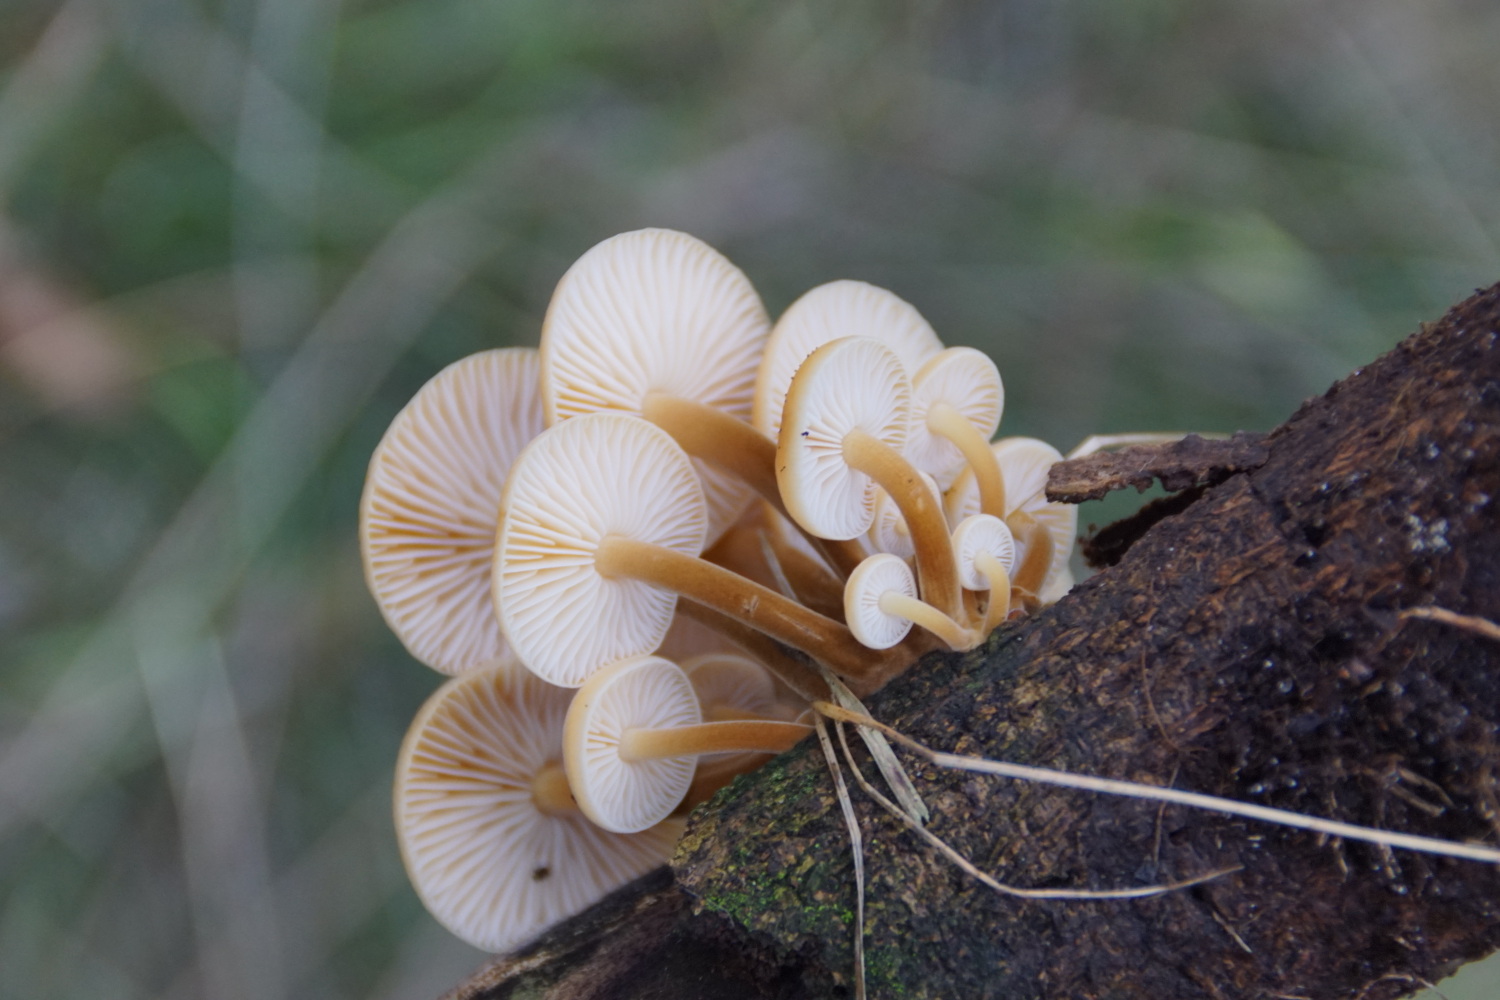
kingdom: Fungi
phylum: Basidiomycota
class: Agaricomycetes
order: Agaricales
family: Physalacriaceae
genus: Flammulina
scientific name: Flammulina velutipes
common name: gul fløjlsfod
